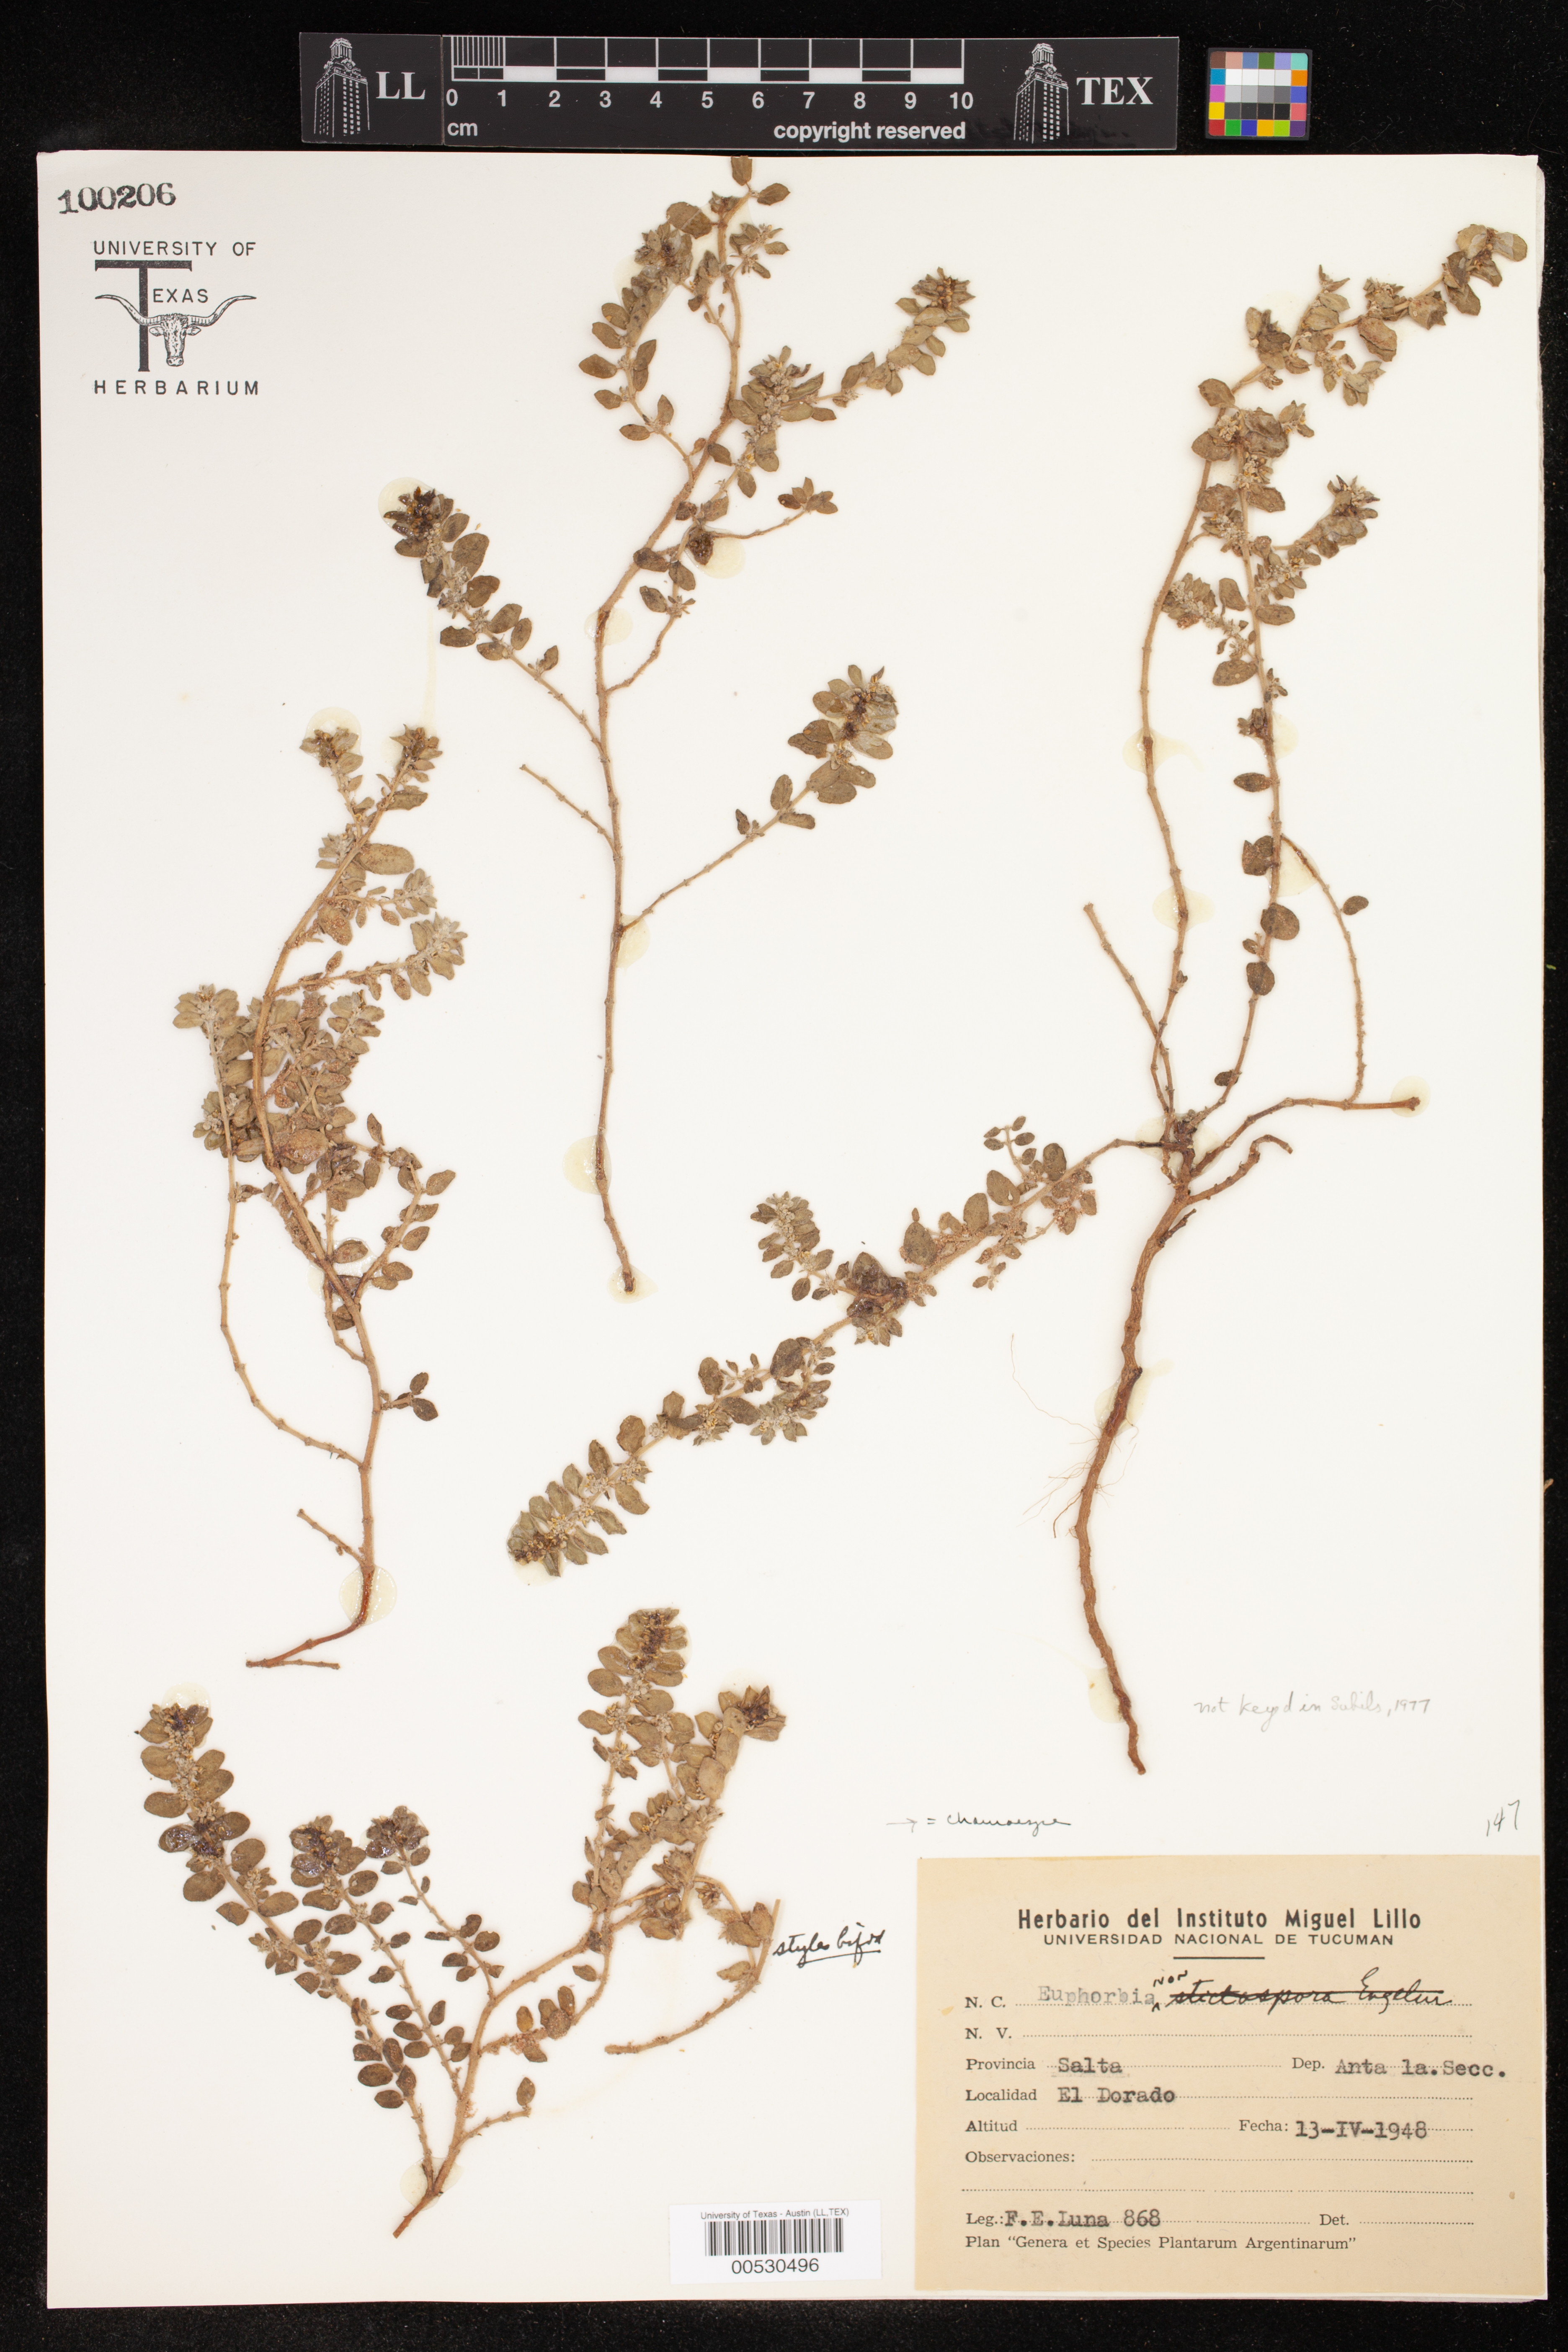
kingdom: Plantae
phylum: Tracheophyta
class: Magnoliopsida
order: Malpighiales
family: Euphorbiaceae
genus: Chamaesyce
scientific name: Chamaesyce
